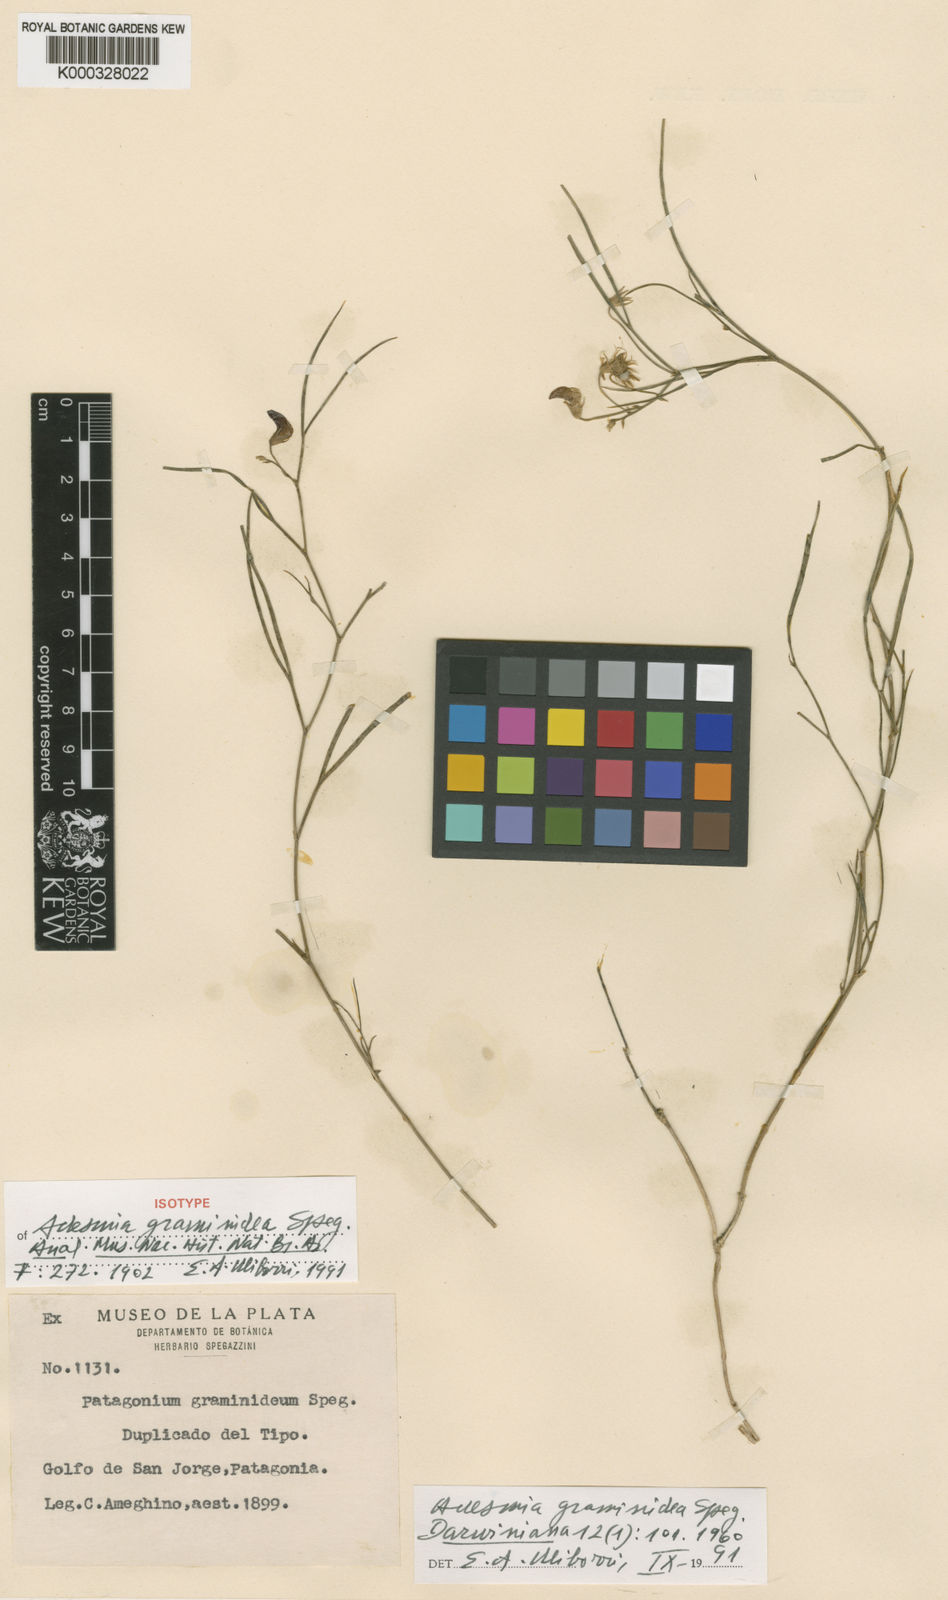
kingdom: Plantae
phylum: Tracheophyta
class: Magnoliopsida
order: Fabales
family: Fabaceae
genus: Adesmia
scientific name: Adesmia graminidea
